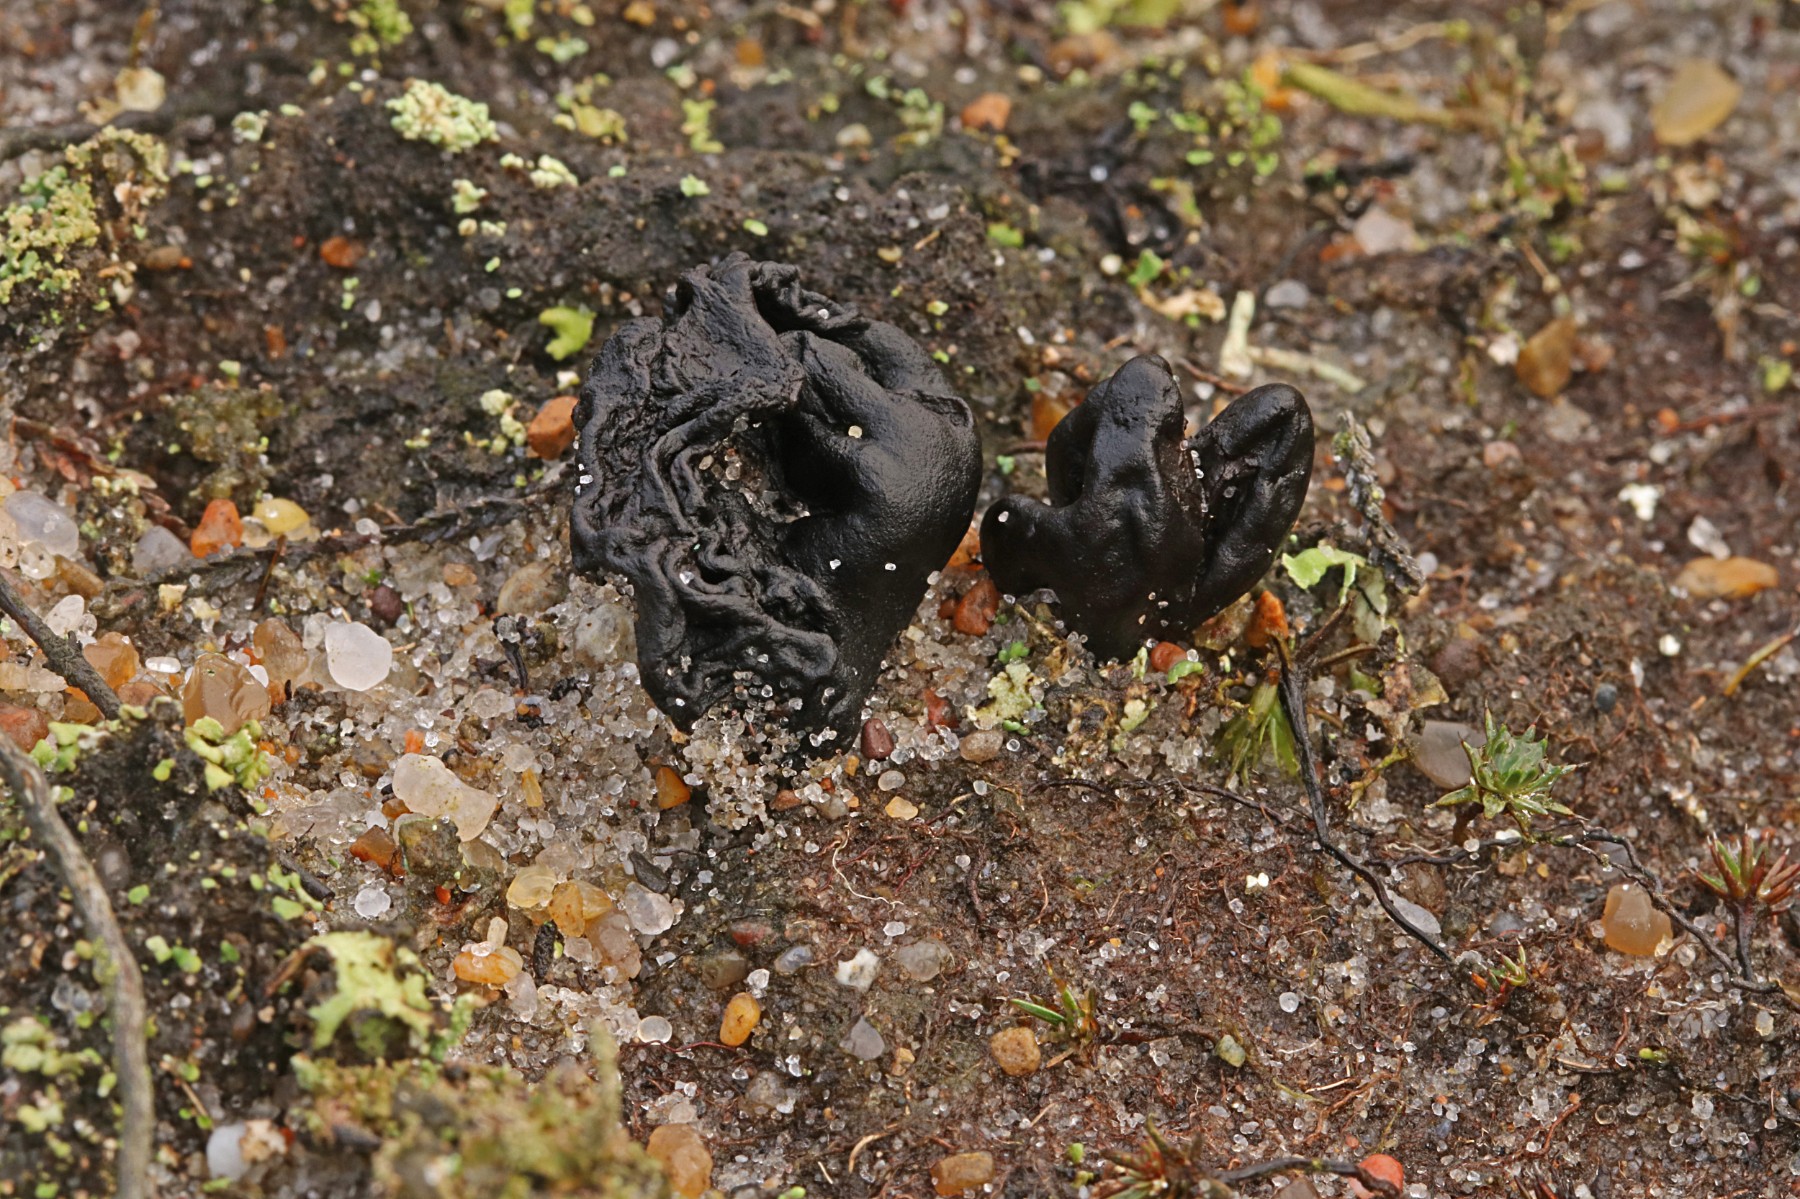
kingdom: Fungi
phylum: Ascomycota
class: Geoglossomycetes
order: Geoglossales
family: Geoglossaceae
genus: Sabuloglossum
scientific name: Sabuloglossum arenarium
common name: klit-jordtunge
